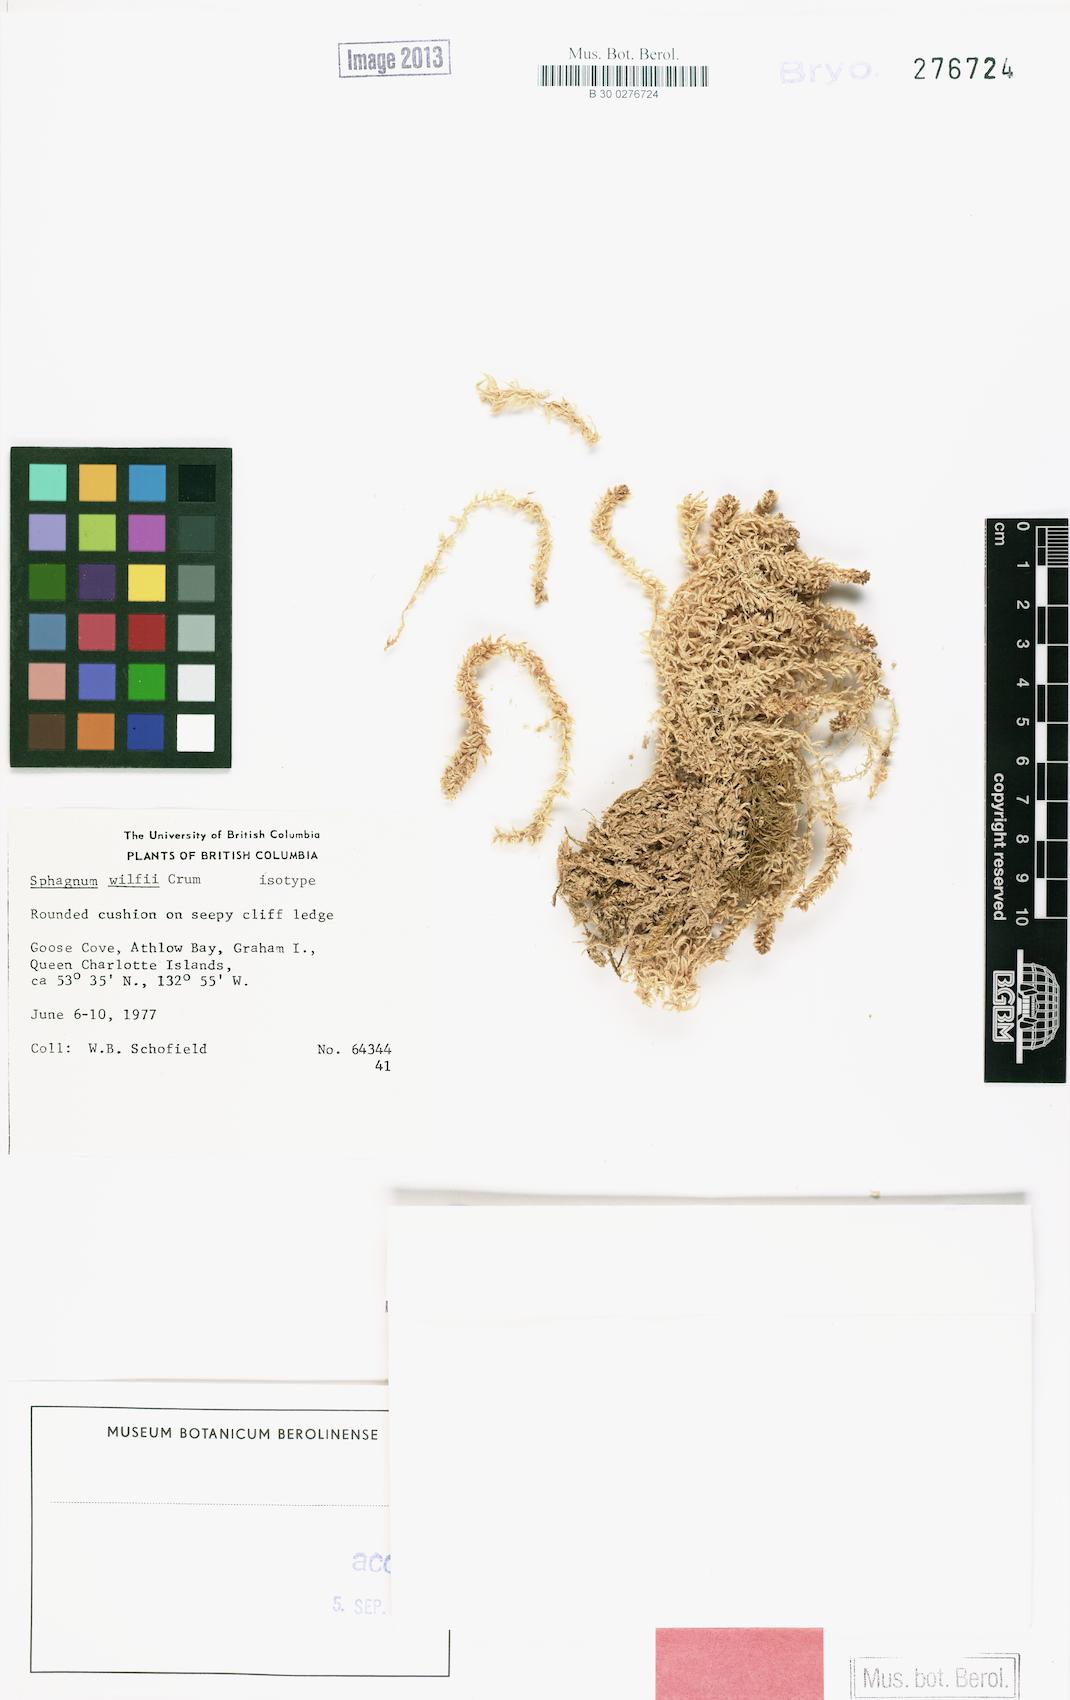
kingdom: Plantae
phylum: Bryophyta
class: Sphagnopsida
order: Sphagnales
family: Sphagnaceae
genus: Sphagnum
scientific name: Sphagnum wilfii
